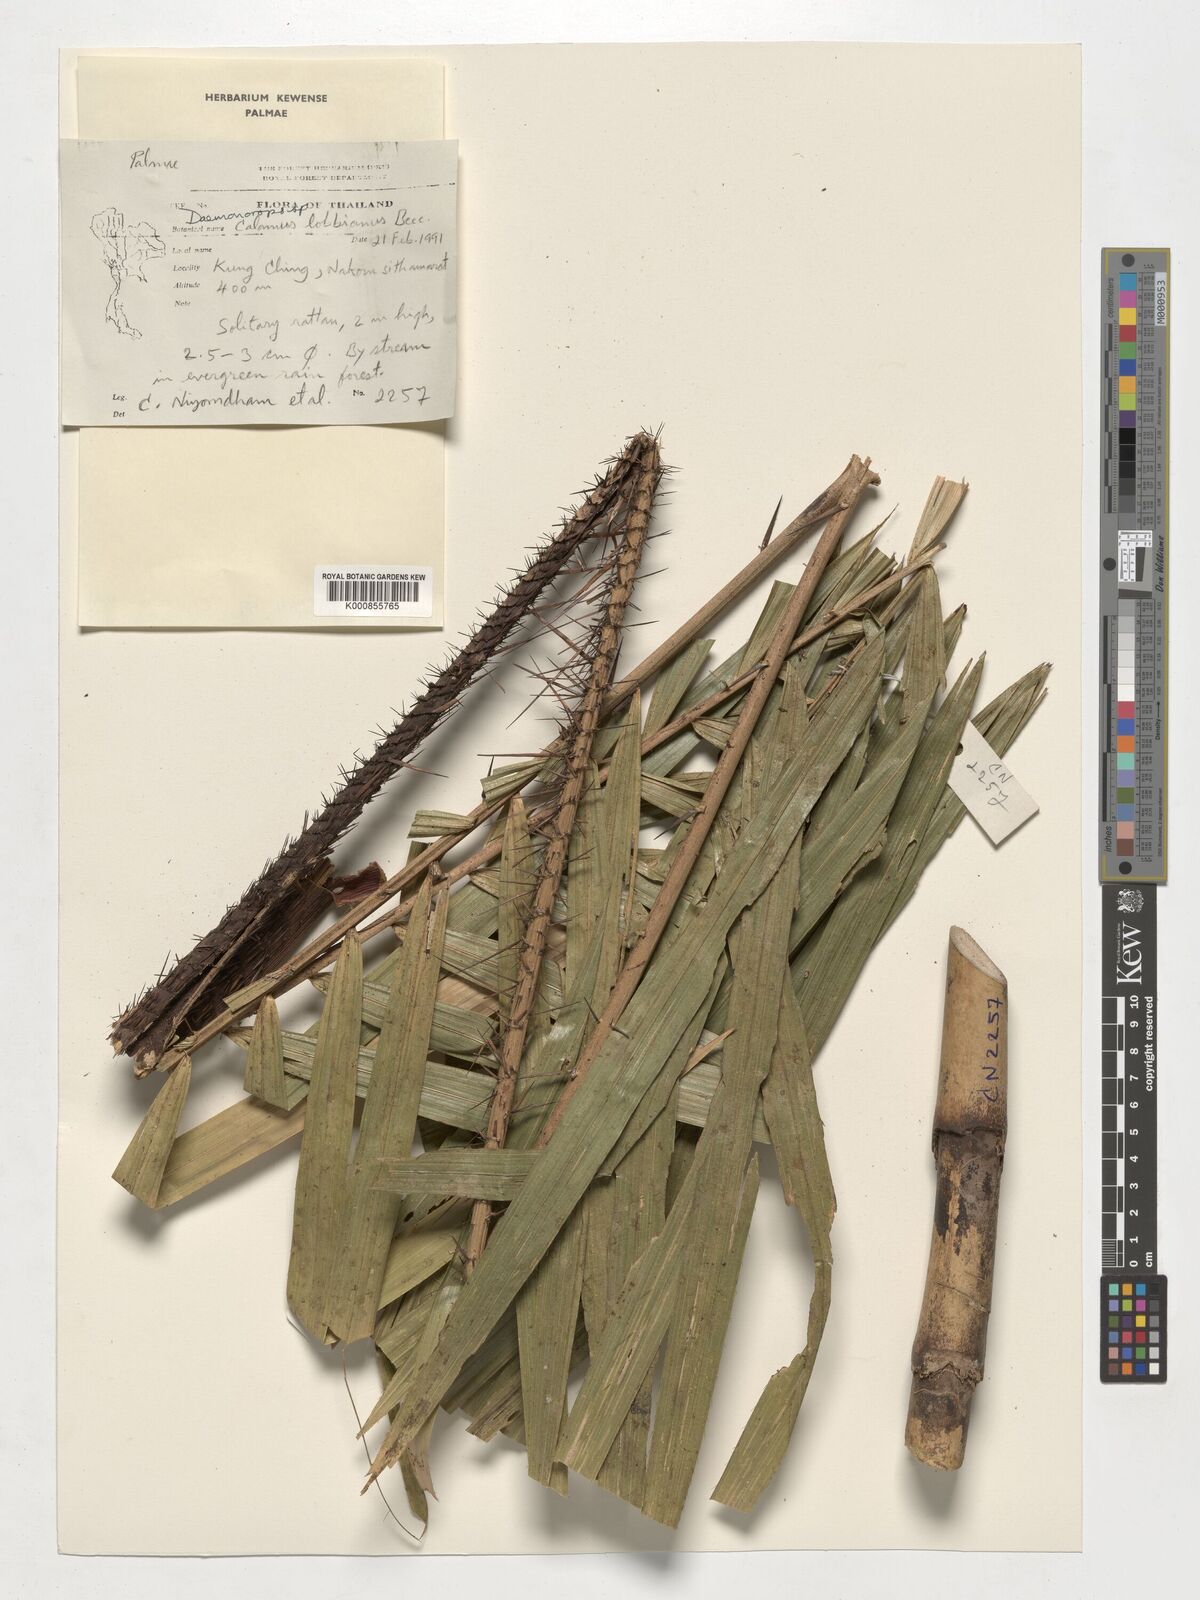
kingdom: Plantae
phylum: Tracheophyta
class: Liliopsida
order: Arecales
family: Arecaceae
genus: Daemonorops
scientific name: Daemonorops
